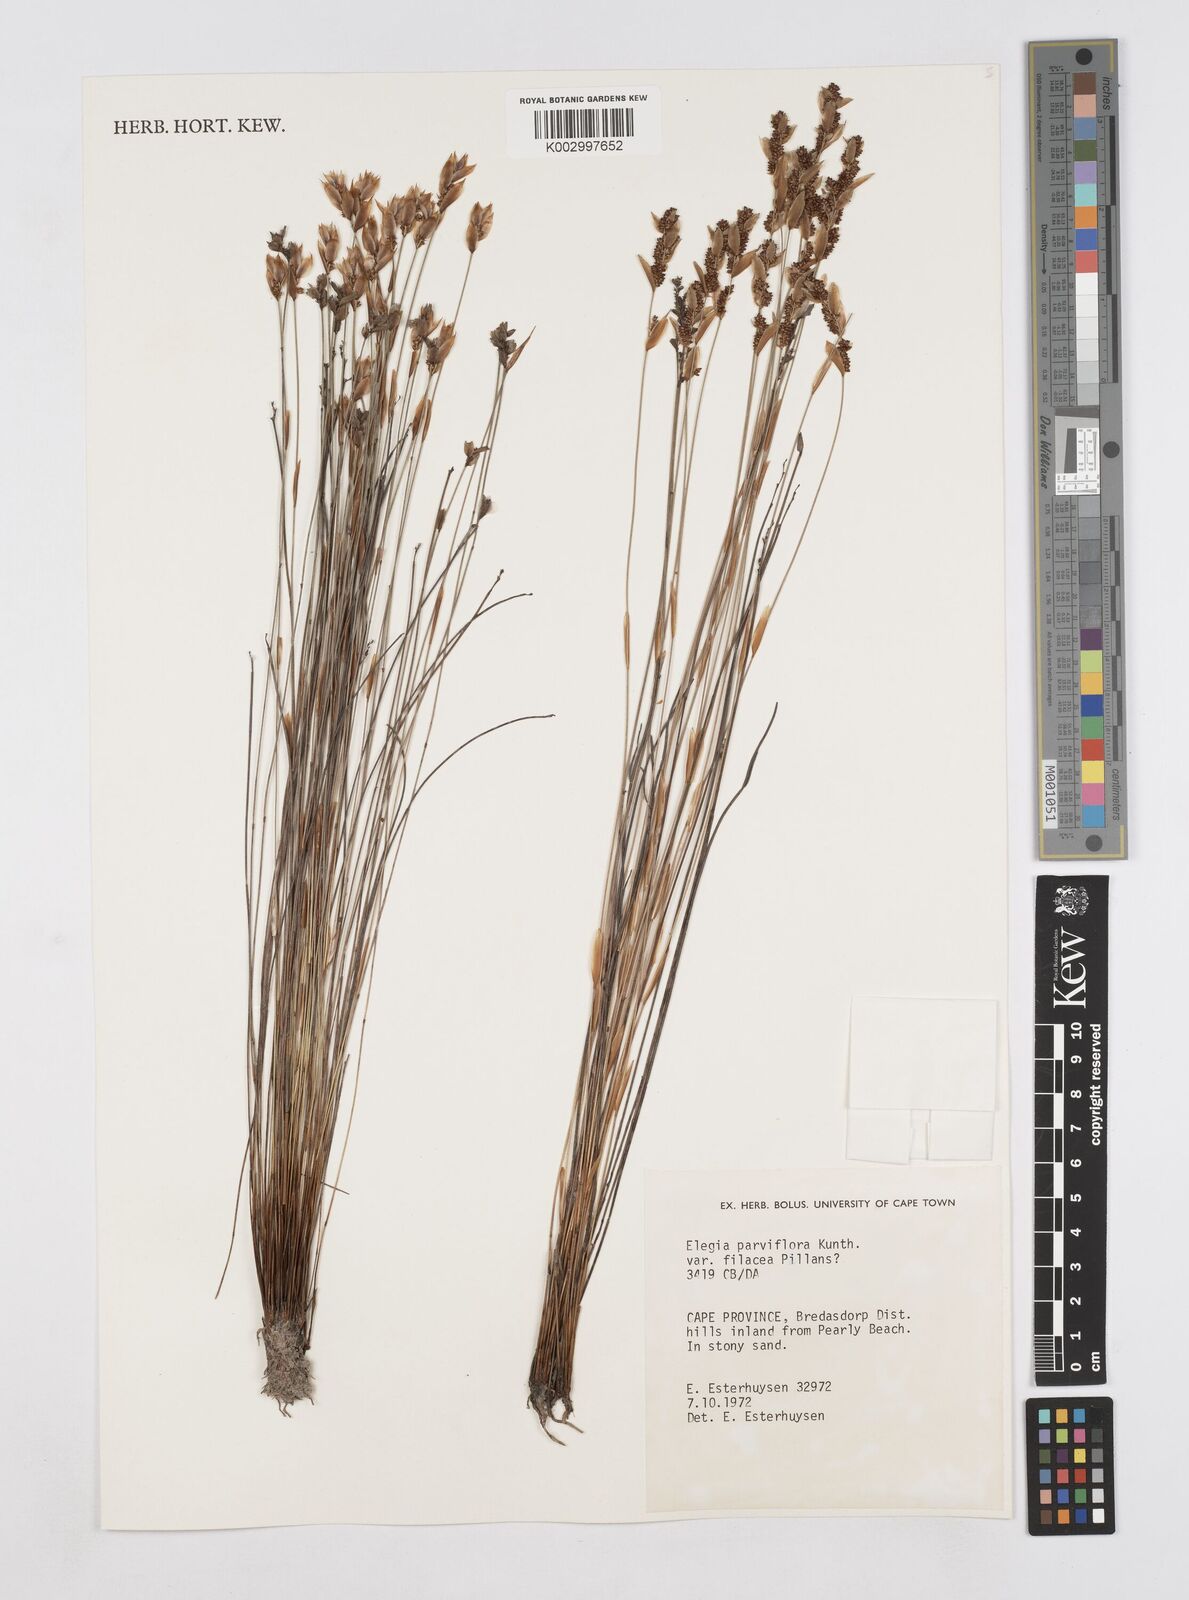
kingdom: Plantae
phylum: Tracheophyta
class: Liliopsida
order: Poales
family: Restionaceae
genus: Cannomois
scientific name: Cannomois parviflora
